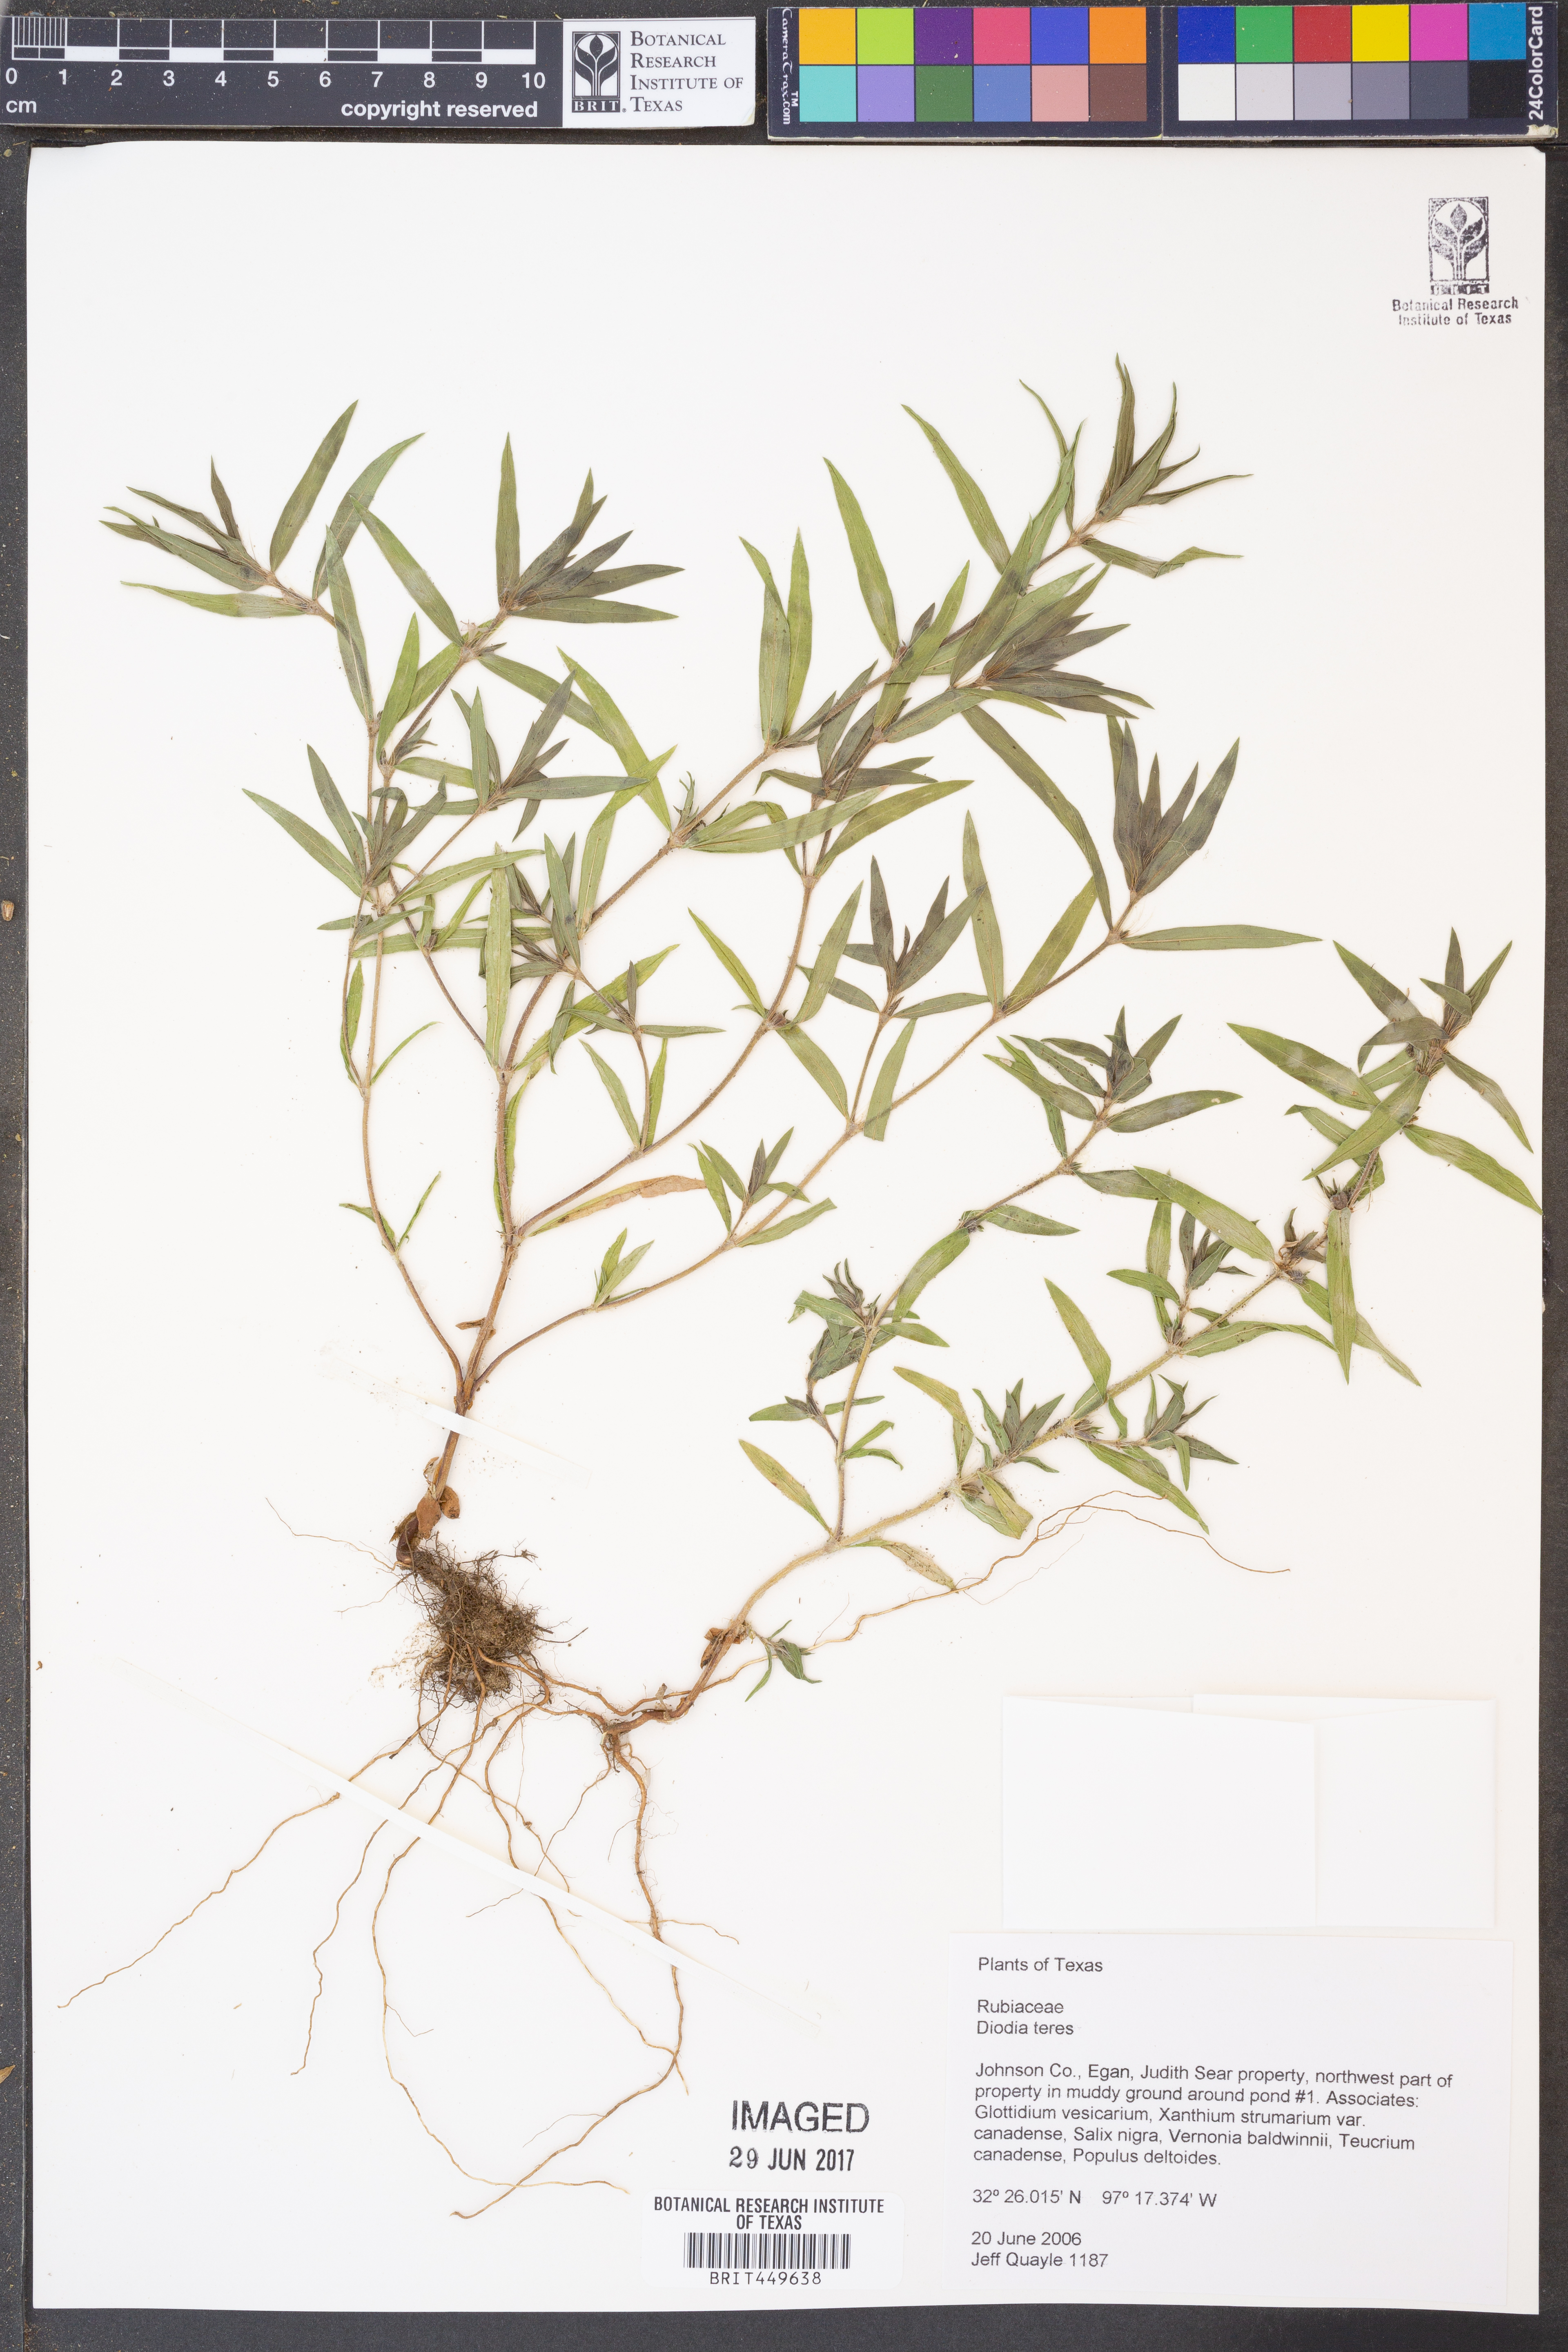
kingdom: Plantae
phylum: Tracheophyta
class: Magnoliopsida
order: Gentianales
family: Rubiaceae
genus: Hexasepalum
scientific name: Hexasepalum teres
